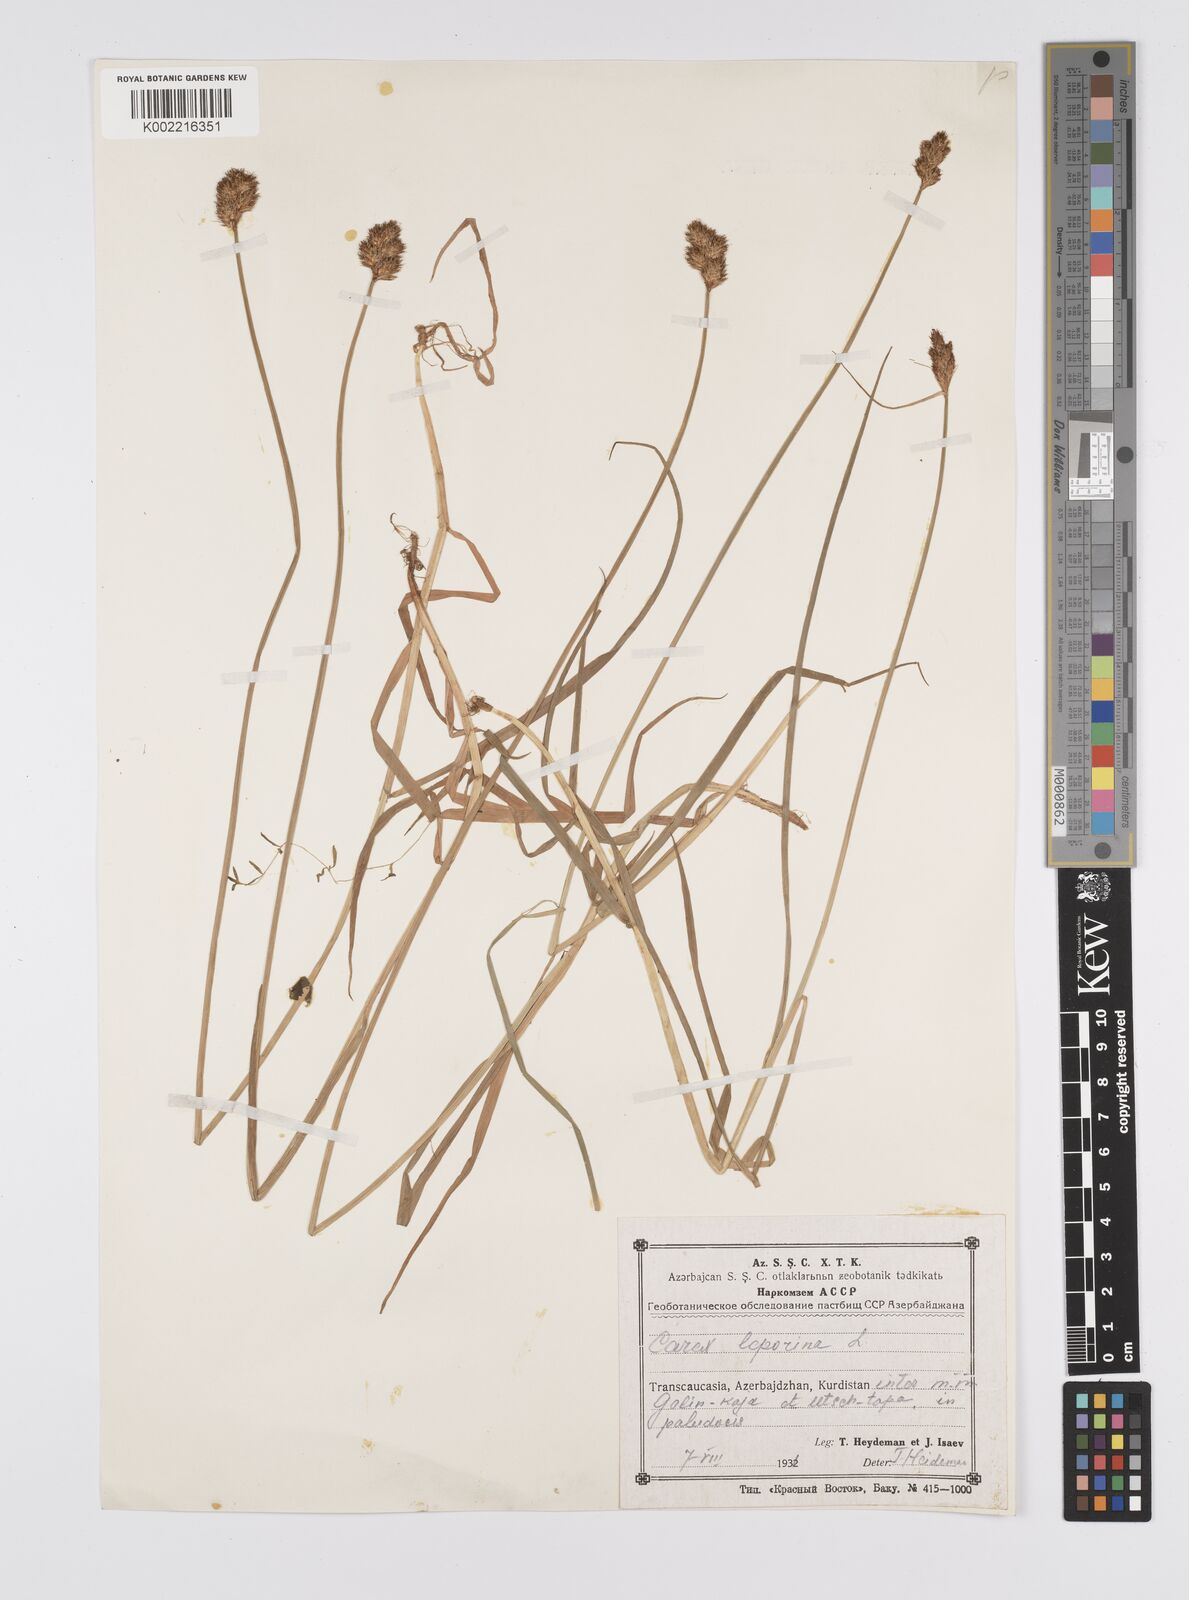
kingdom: Plantae
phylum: Tracheophyta
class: Liliopsida
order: Poales
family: Cyperaceae
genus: Carex
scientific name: Carex leporina
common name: Oval sedge
